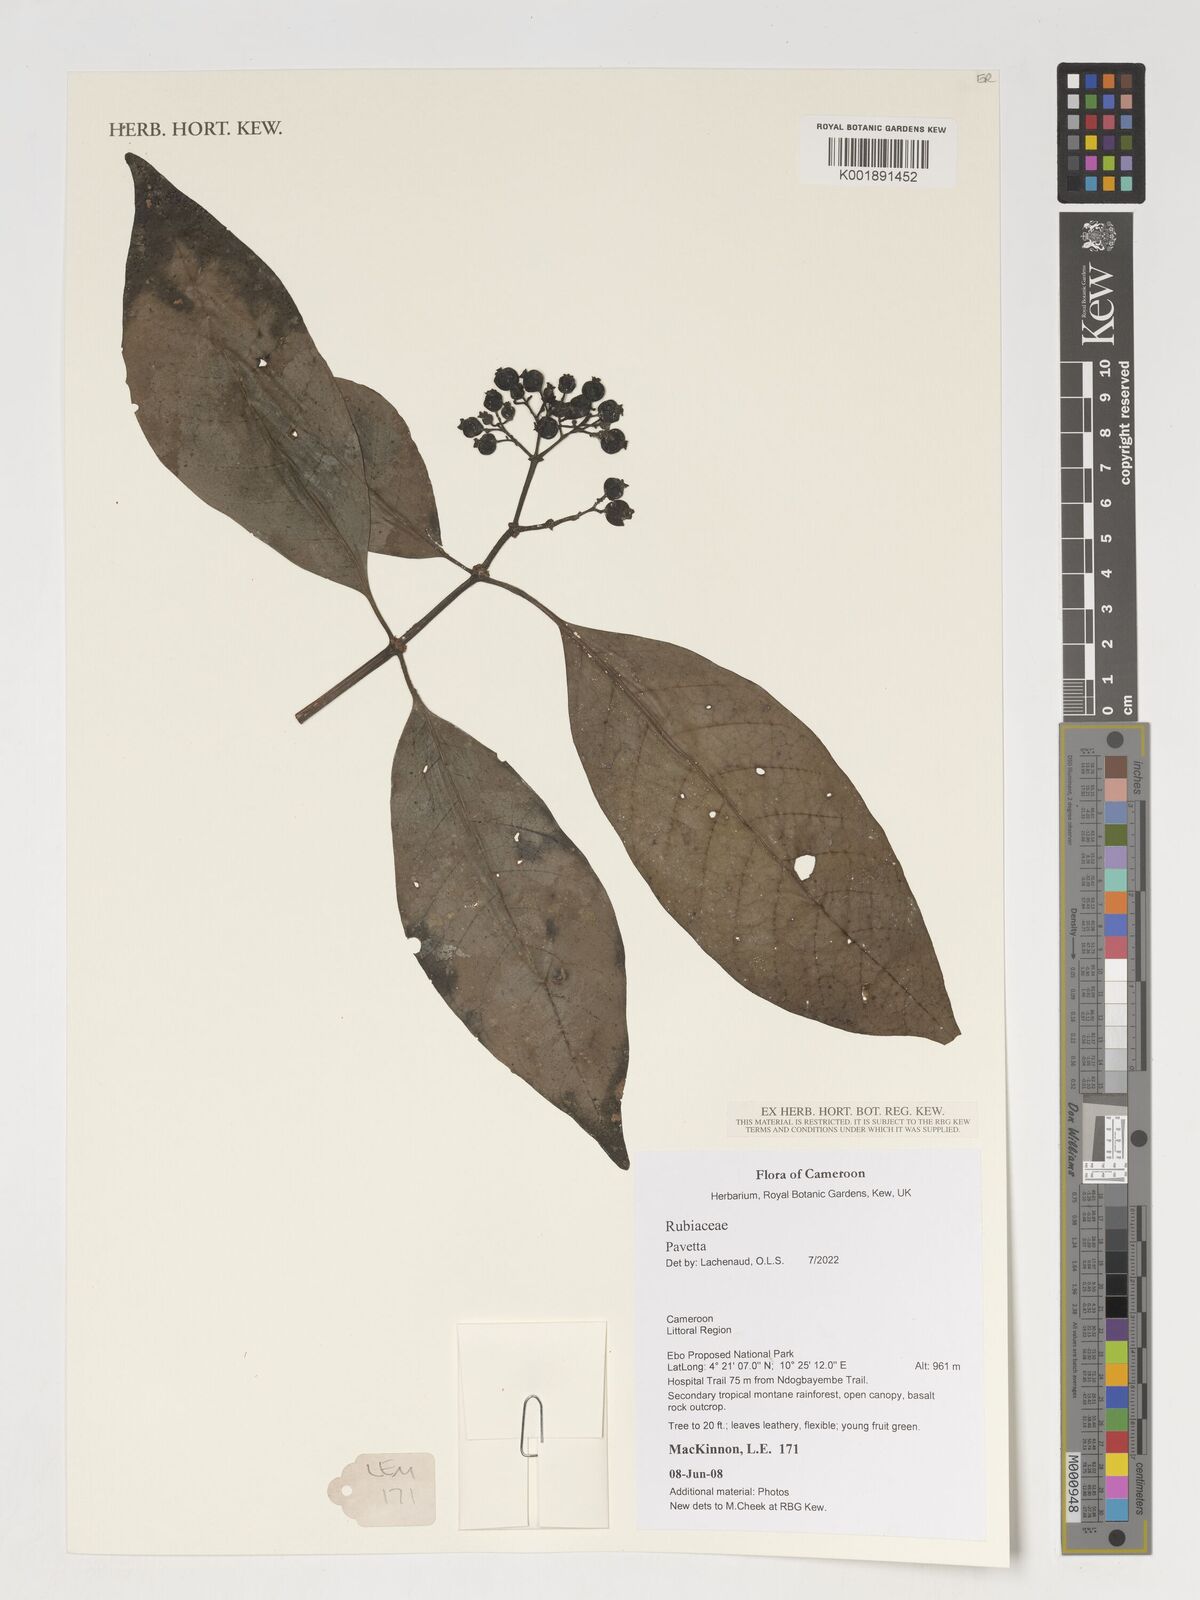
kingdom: Plantae
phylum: Tracheophyta
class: Magnoliopsida
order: Gentianales
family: Rubiaceae
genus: Pavetta
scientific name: Pavetta
